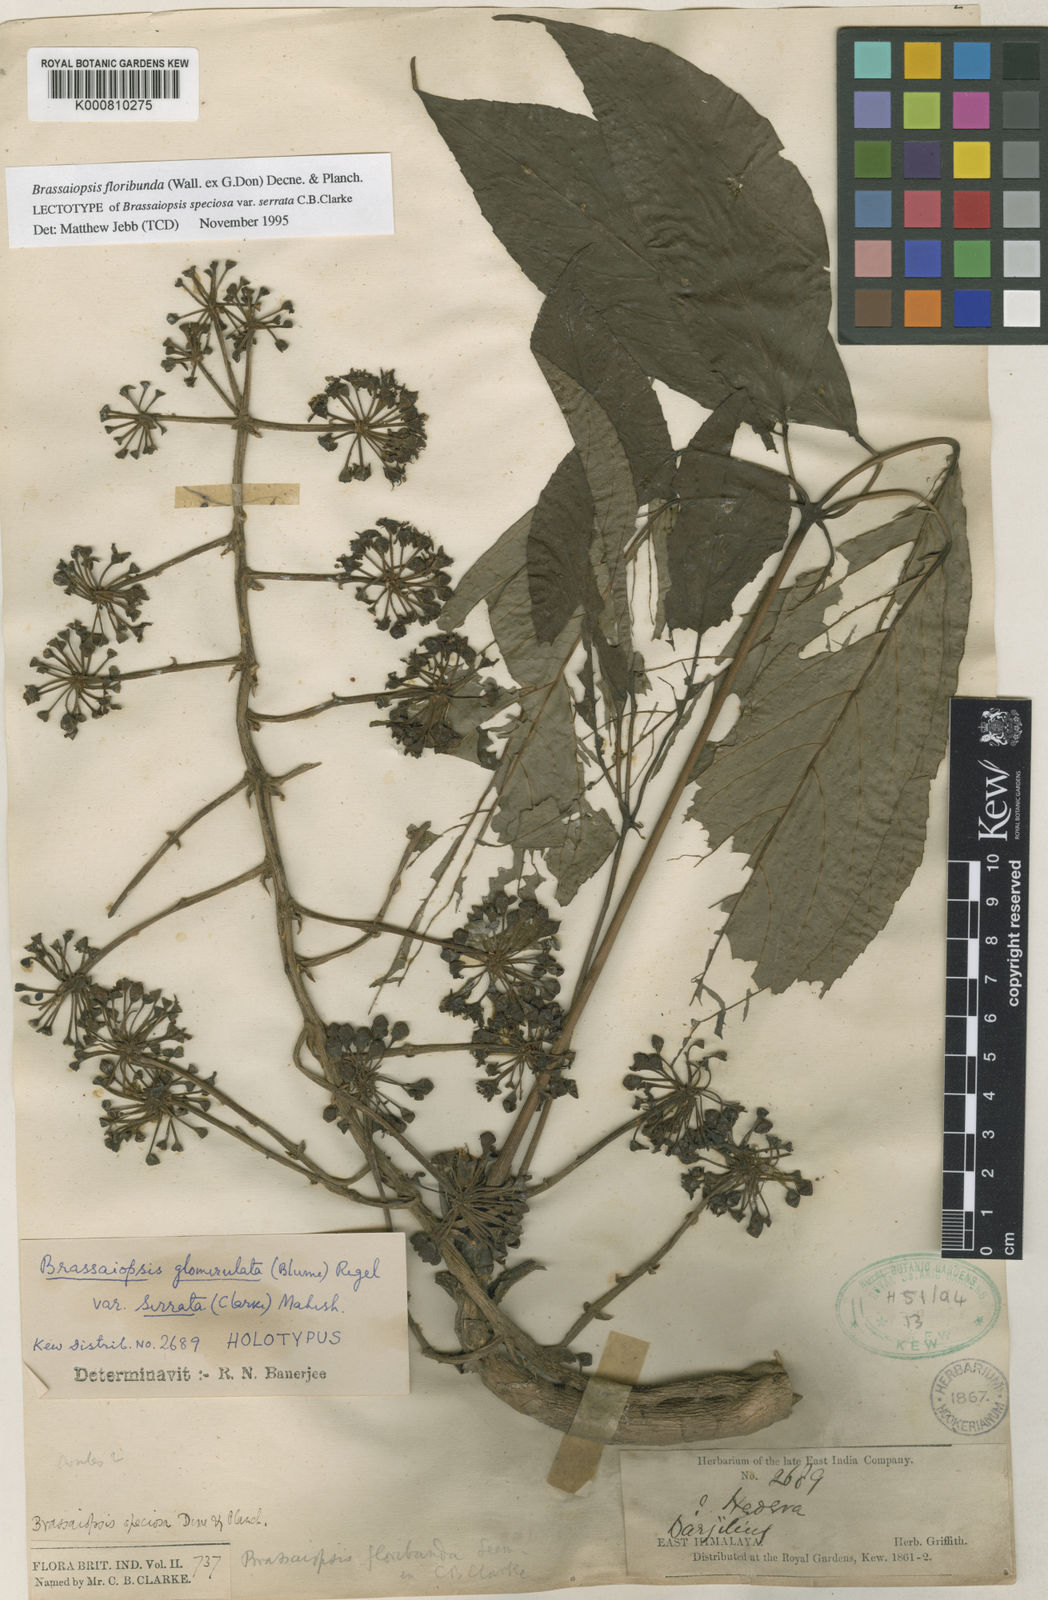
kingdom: Plantae
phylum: Tracheophyta
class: Magnoliopsida
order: Apiales
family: Araliaceae
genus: Brassaiopsis
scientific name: Brassaiopsis glomerulata
